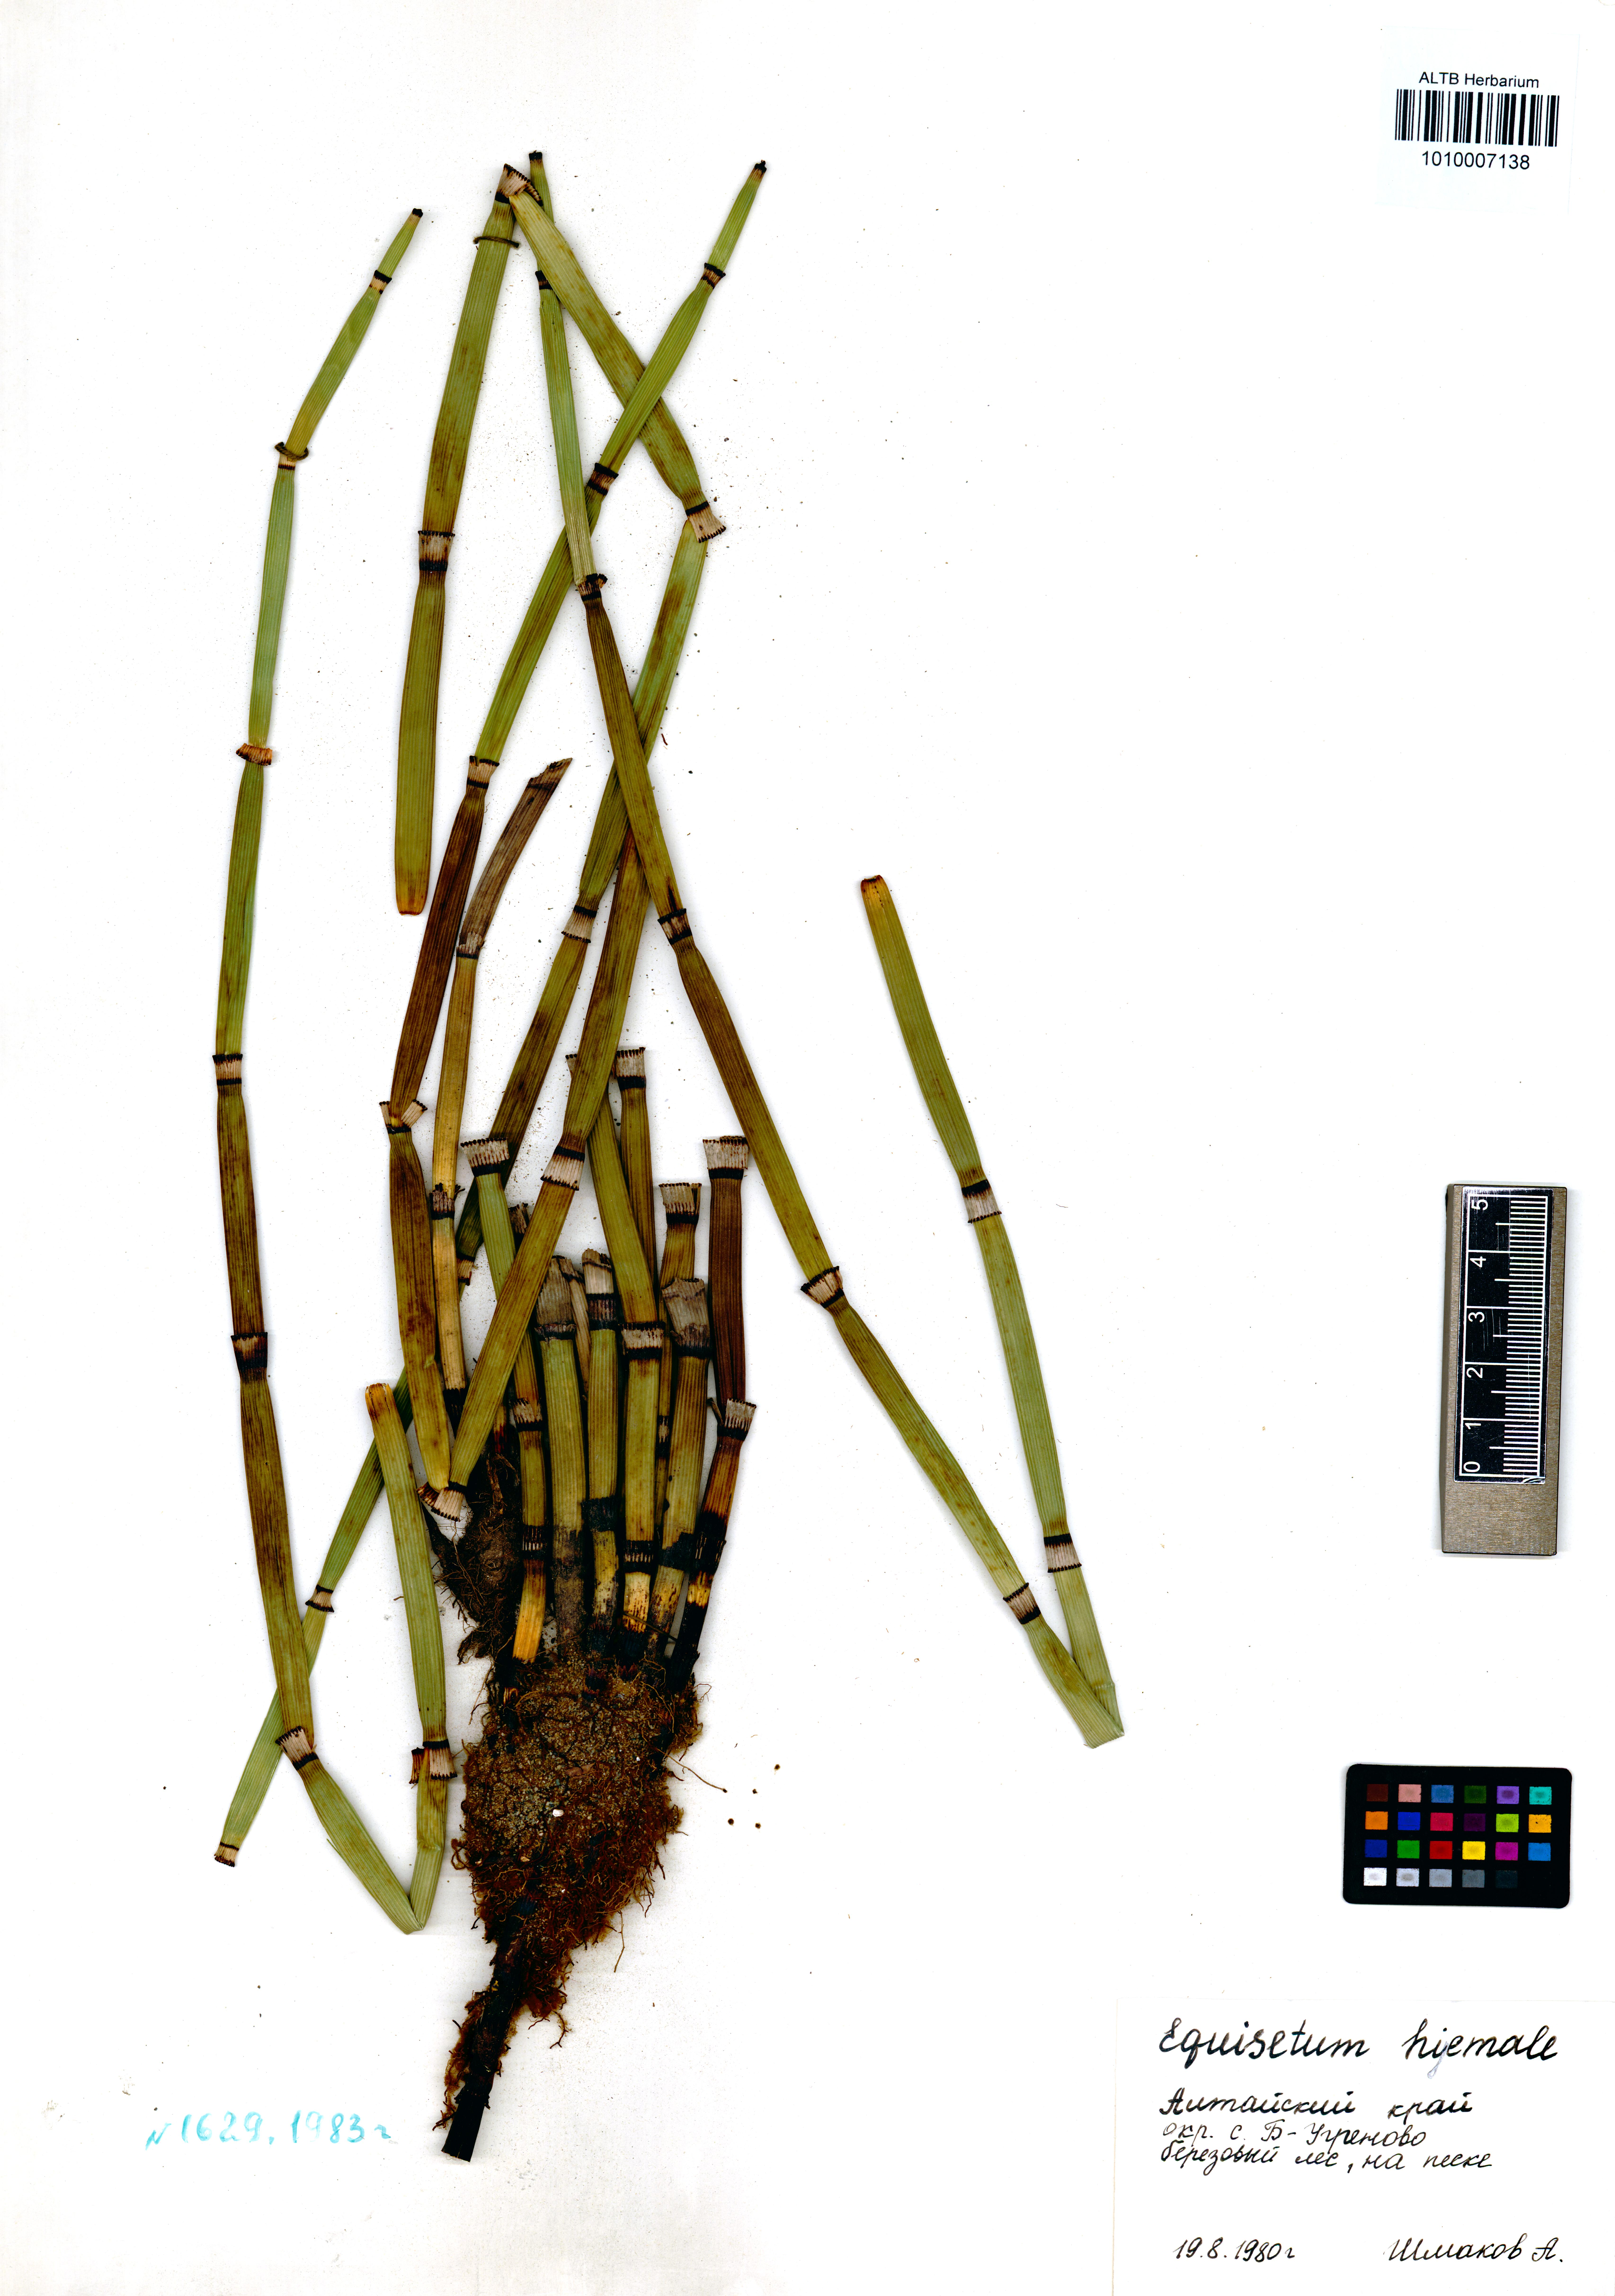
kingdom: Plantae
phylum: Tracheophyta
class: Polypodiopsida
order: Equisetales
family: Equisetaceae
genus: Equisetum
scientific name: Equisetum hyemale
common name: Rough horsetail
